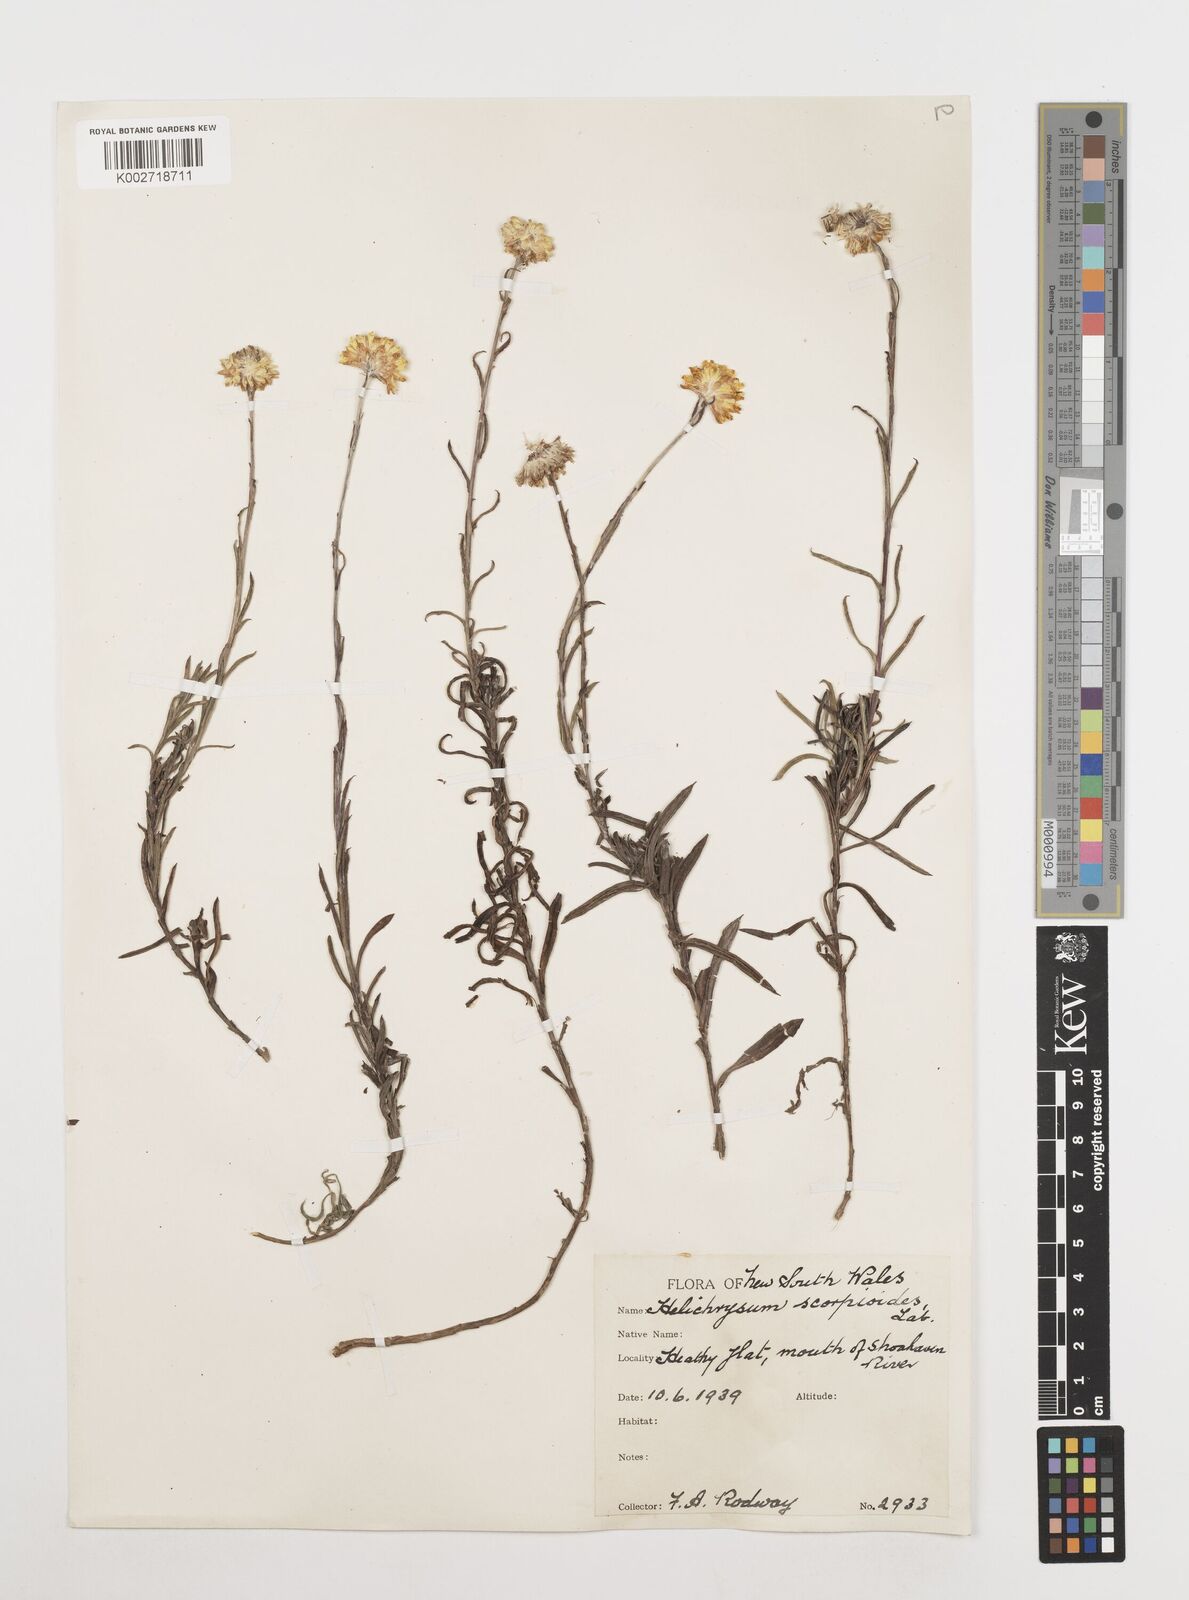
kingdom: Plantae
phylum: Tracheophyta
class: Magnoliopsida
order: Asterales
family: Asteraceae
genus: Coronidium
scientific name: Coronidium scorpioides
